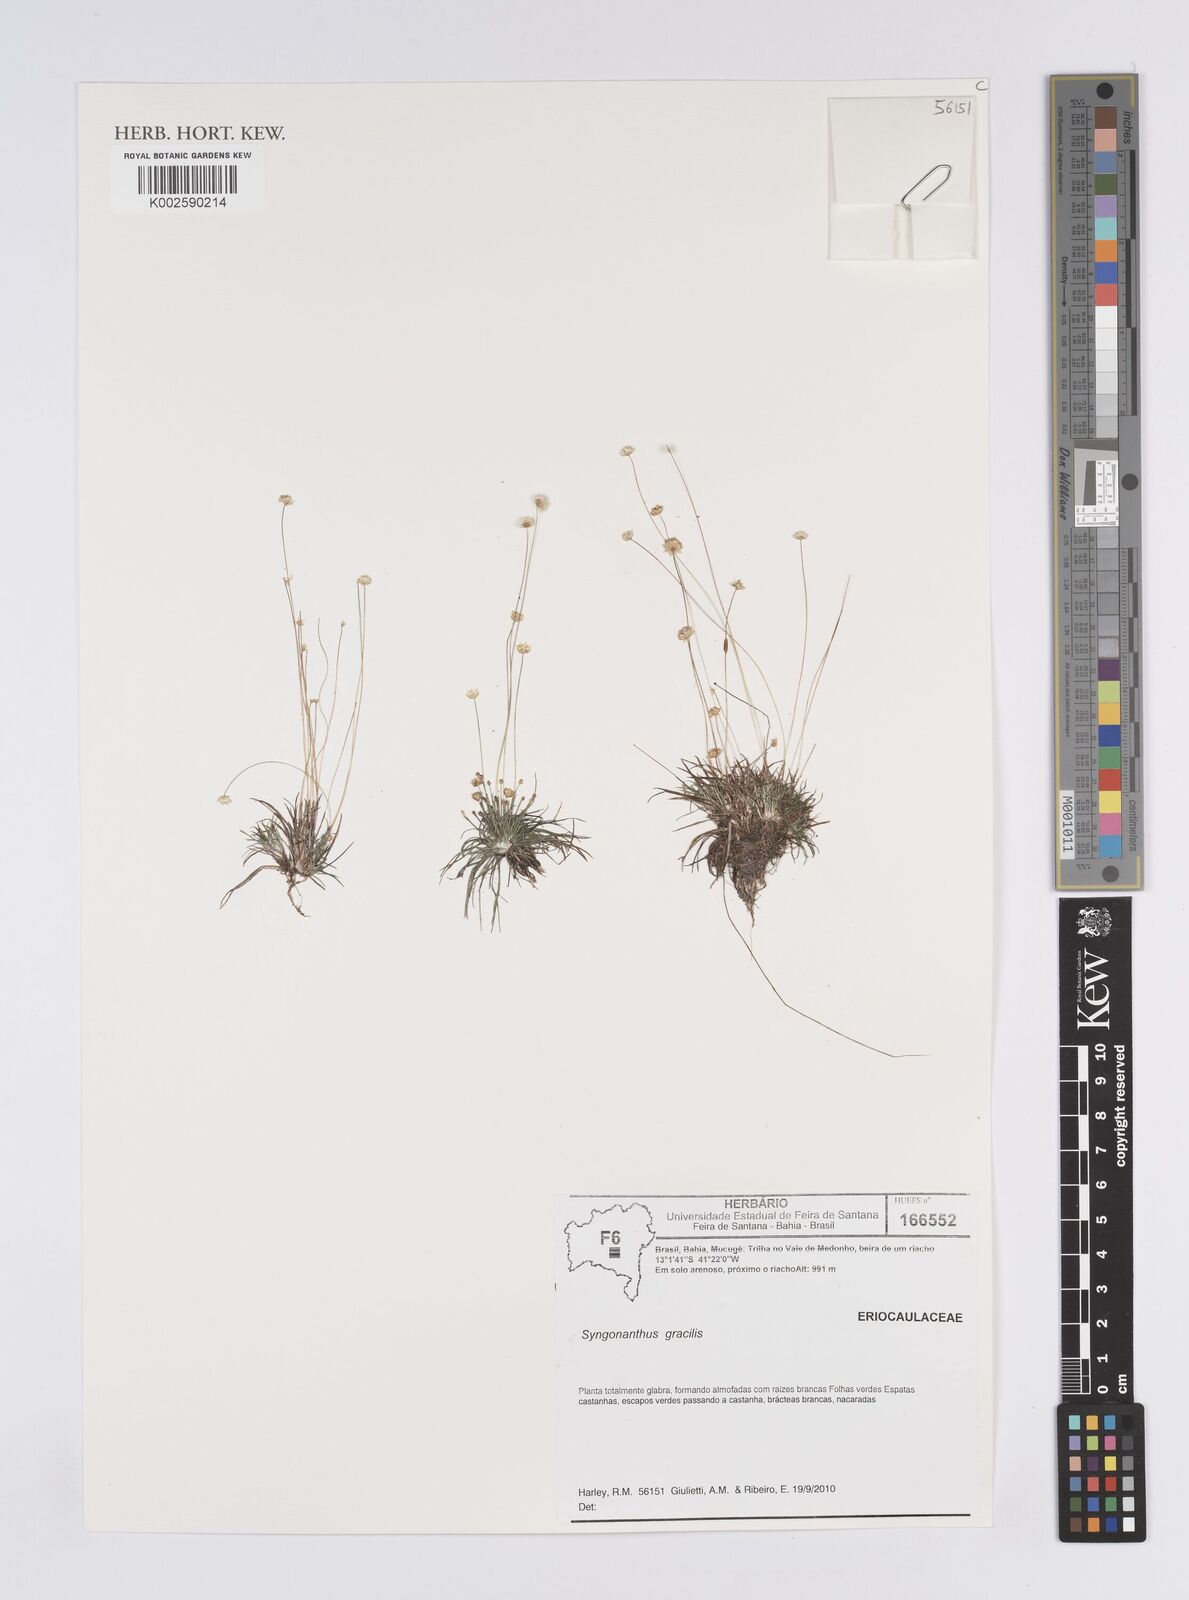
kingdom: Plantae
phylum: Tracheophyta
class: Liliopsida
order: Poales
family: Eriocaulaceae
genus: Syngonanthus
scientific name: Syngonanthus gracilis
